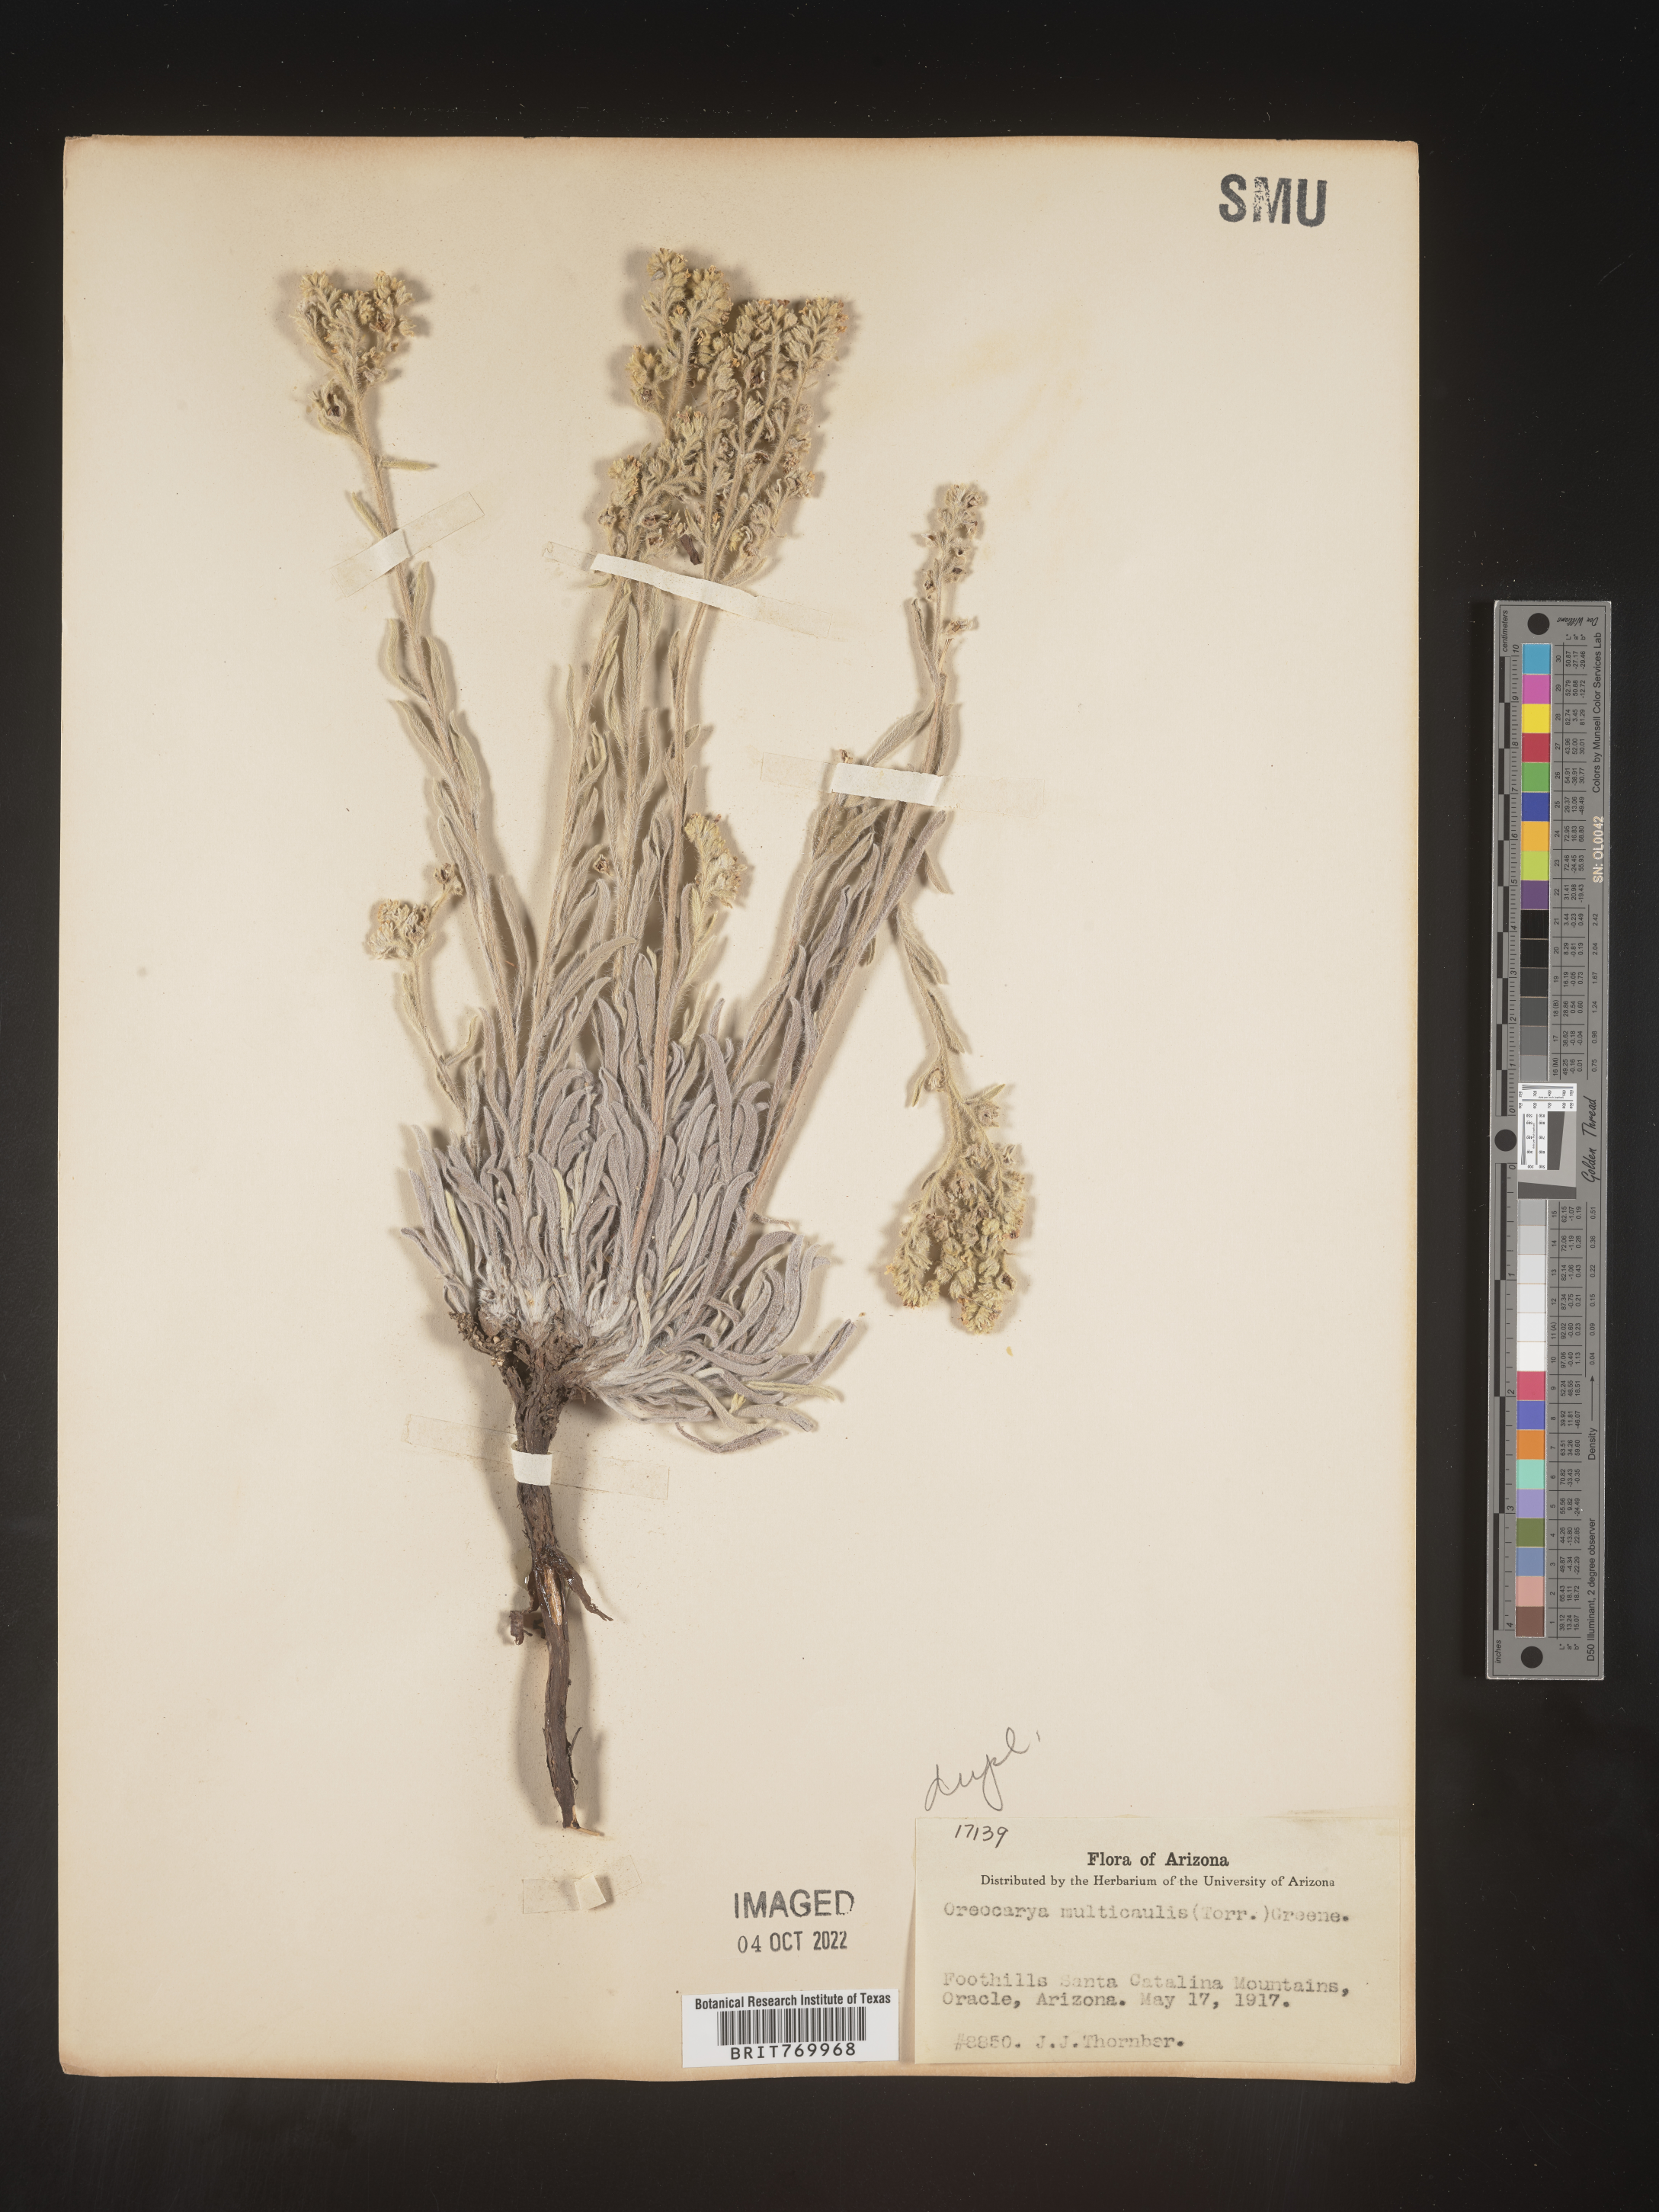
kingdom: Plantae
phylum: Tracheophyta
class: Magnoliopsida
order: Boraginales
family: Boraginaceae
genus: Oreocarya
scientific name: Oreocarya
